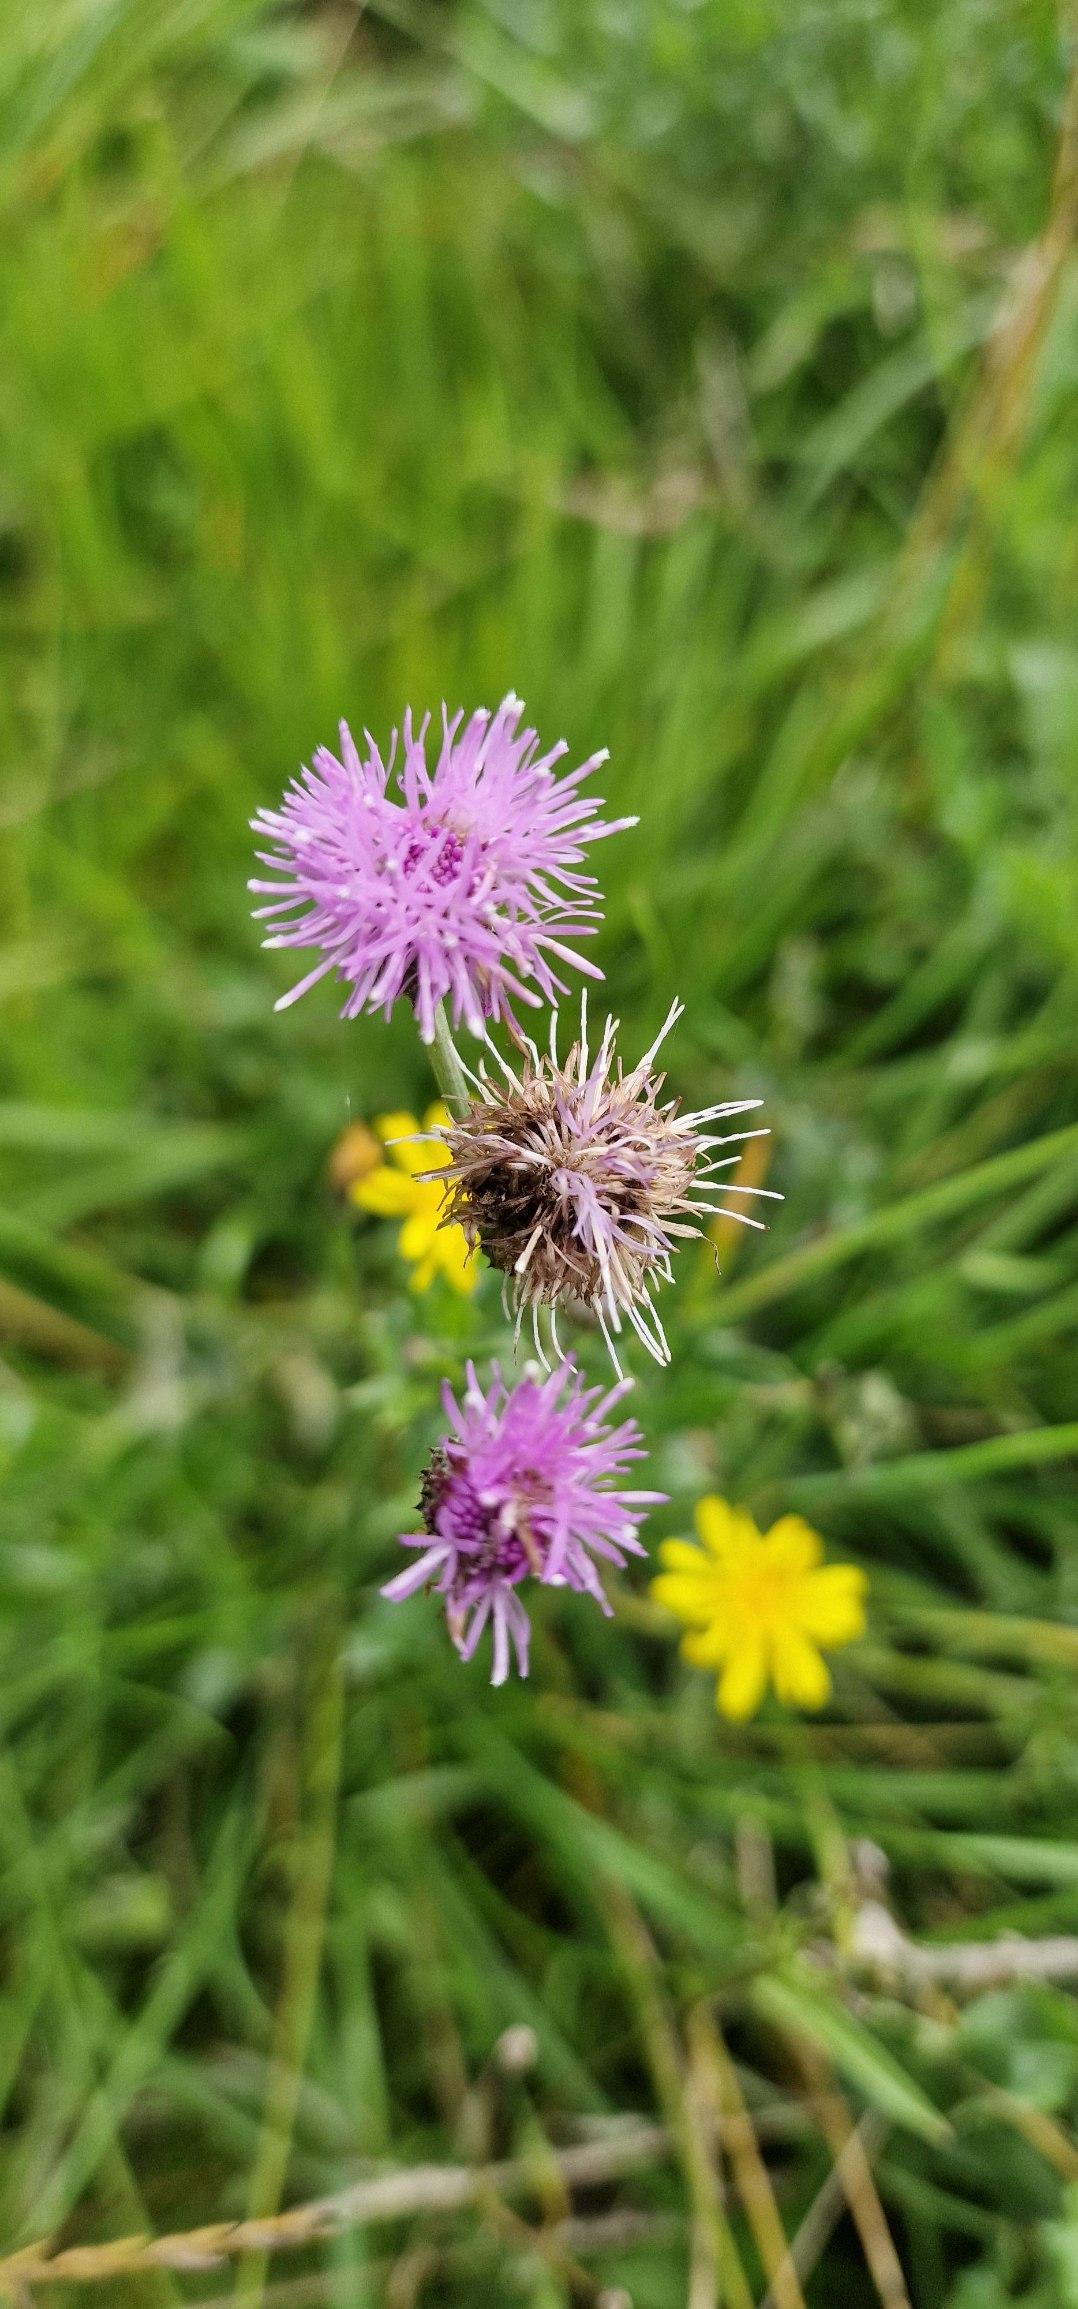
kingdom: Plantae
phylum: Tracheophyta
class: Magnoliopsida
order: Asterales
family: Asteraceae
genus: Cirsium
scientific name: Cirsium arvense
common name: Ager-tidsel
